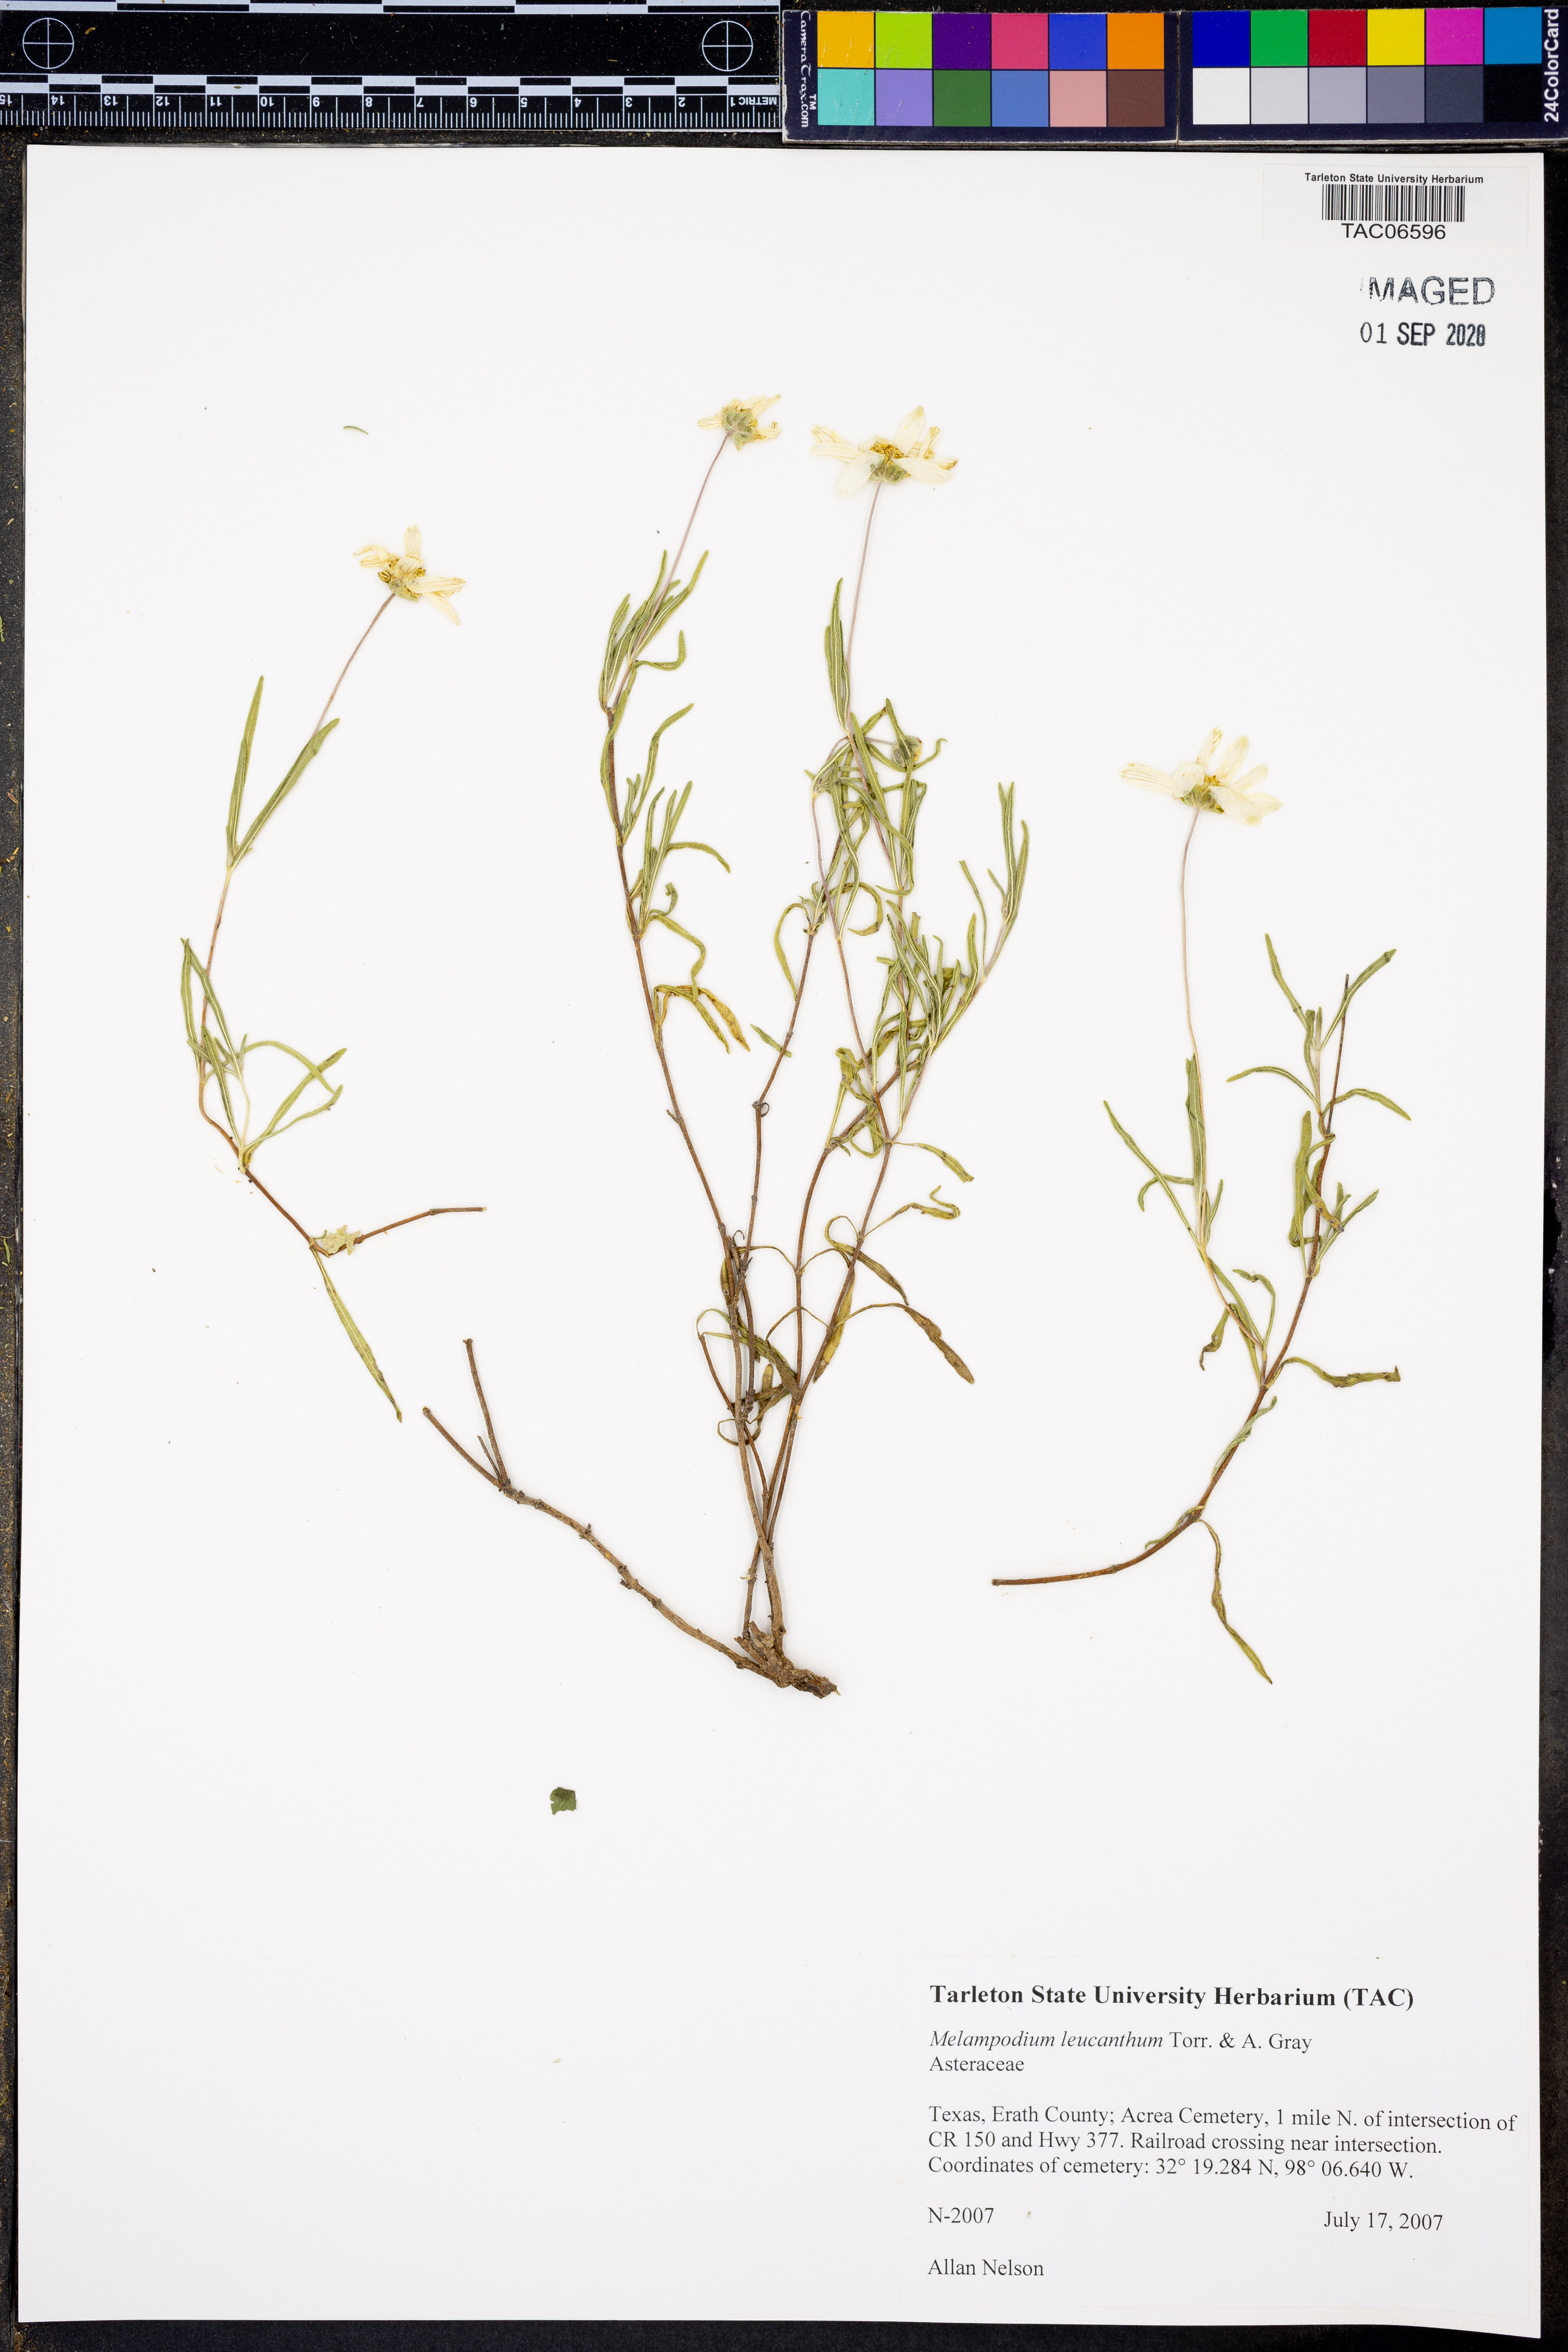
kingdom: Plantae
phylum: Tracheophyta
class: Magnoliopsida
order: Asterales
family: Asteraceae
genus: Melampodium
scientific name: Melampodium leucanthum
